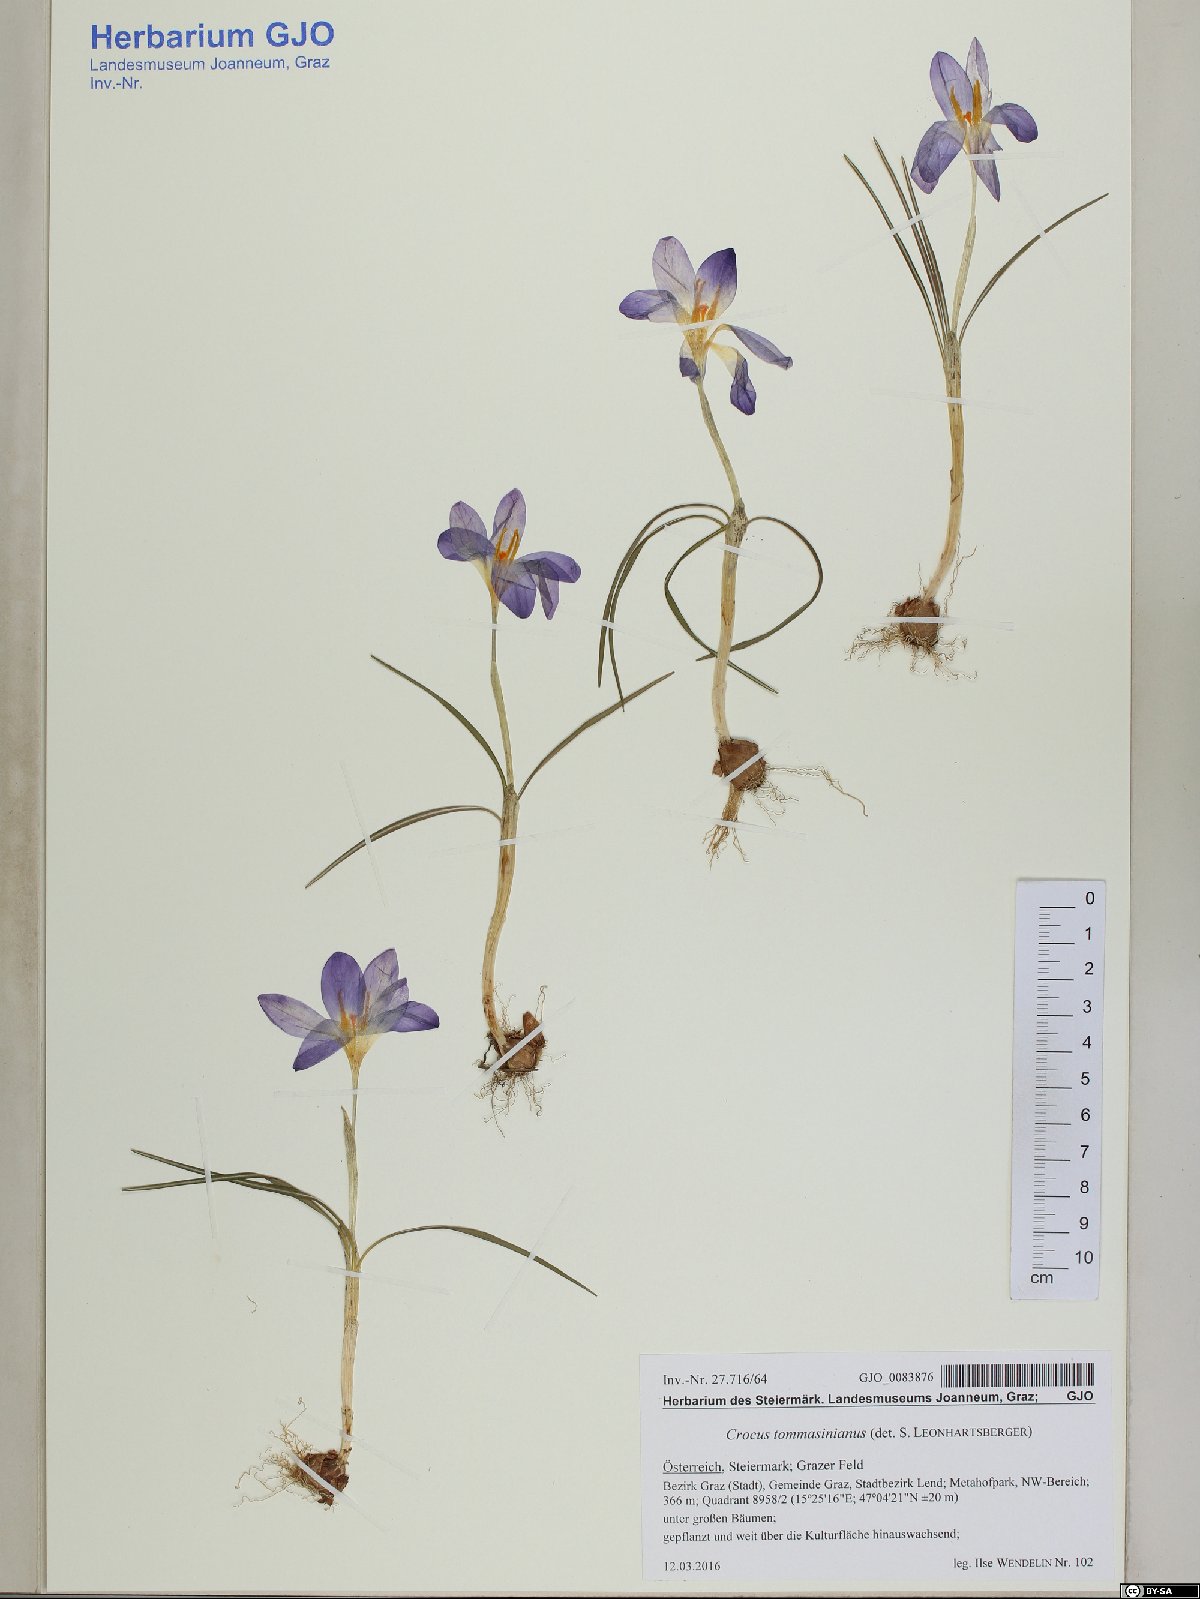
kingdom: Plantae
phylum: Tracheophyta
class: Liliopsida
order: Asparagales
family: Iridaceae
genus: Crocus
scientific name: Crocus tommasinianus
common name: Early crocus
